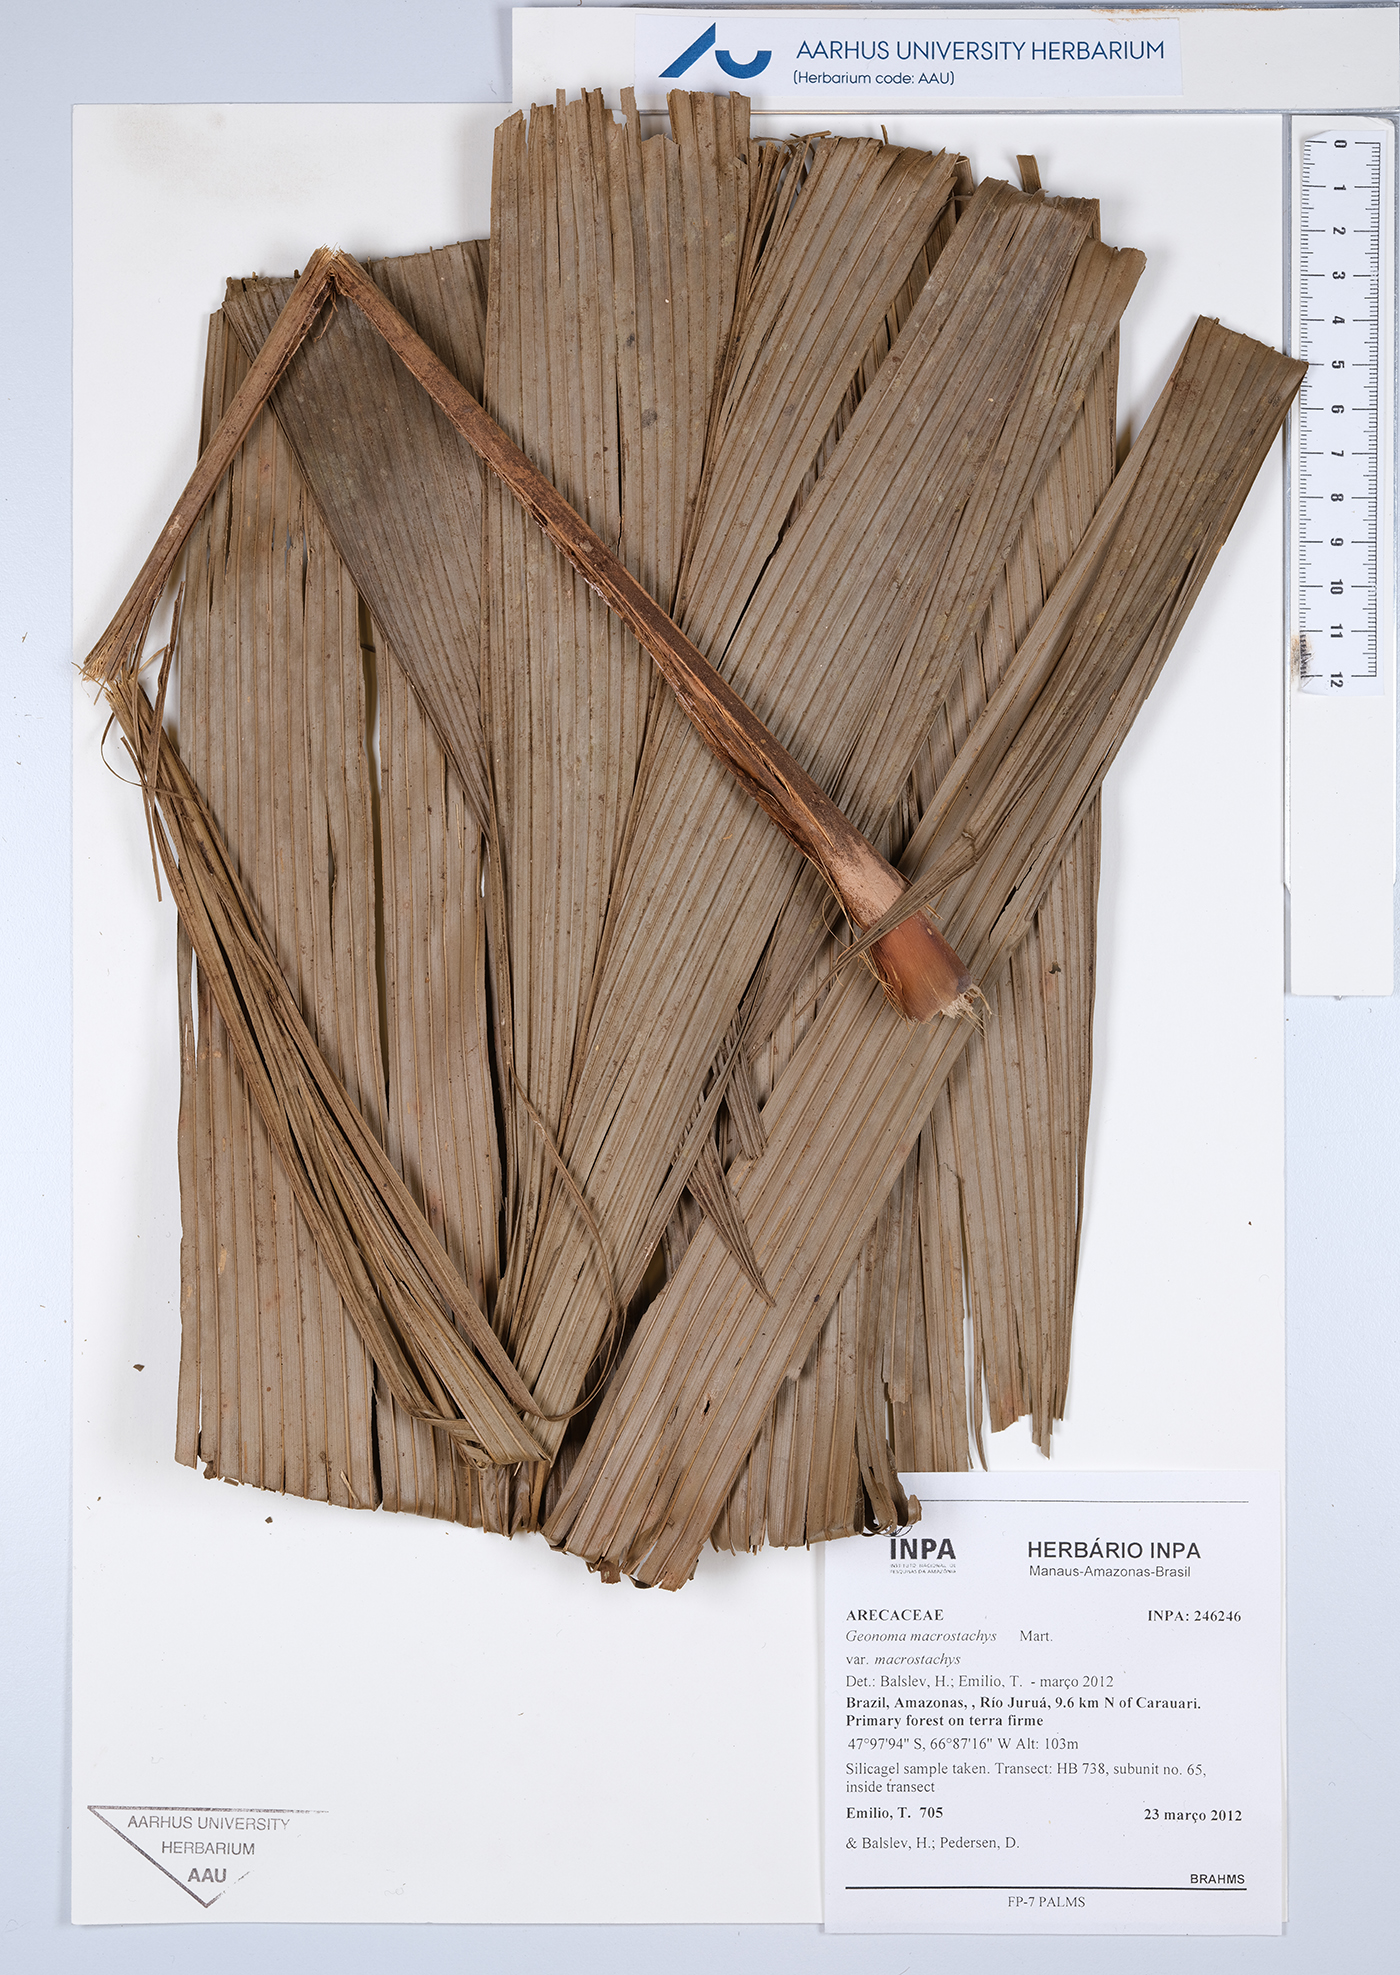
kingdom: Plantae
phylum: Tracheophyta
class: Liliopsida
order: Arecales
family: Arecaceae
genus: Geonoma
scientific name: Geonoma macrostachys
